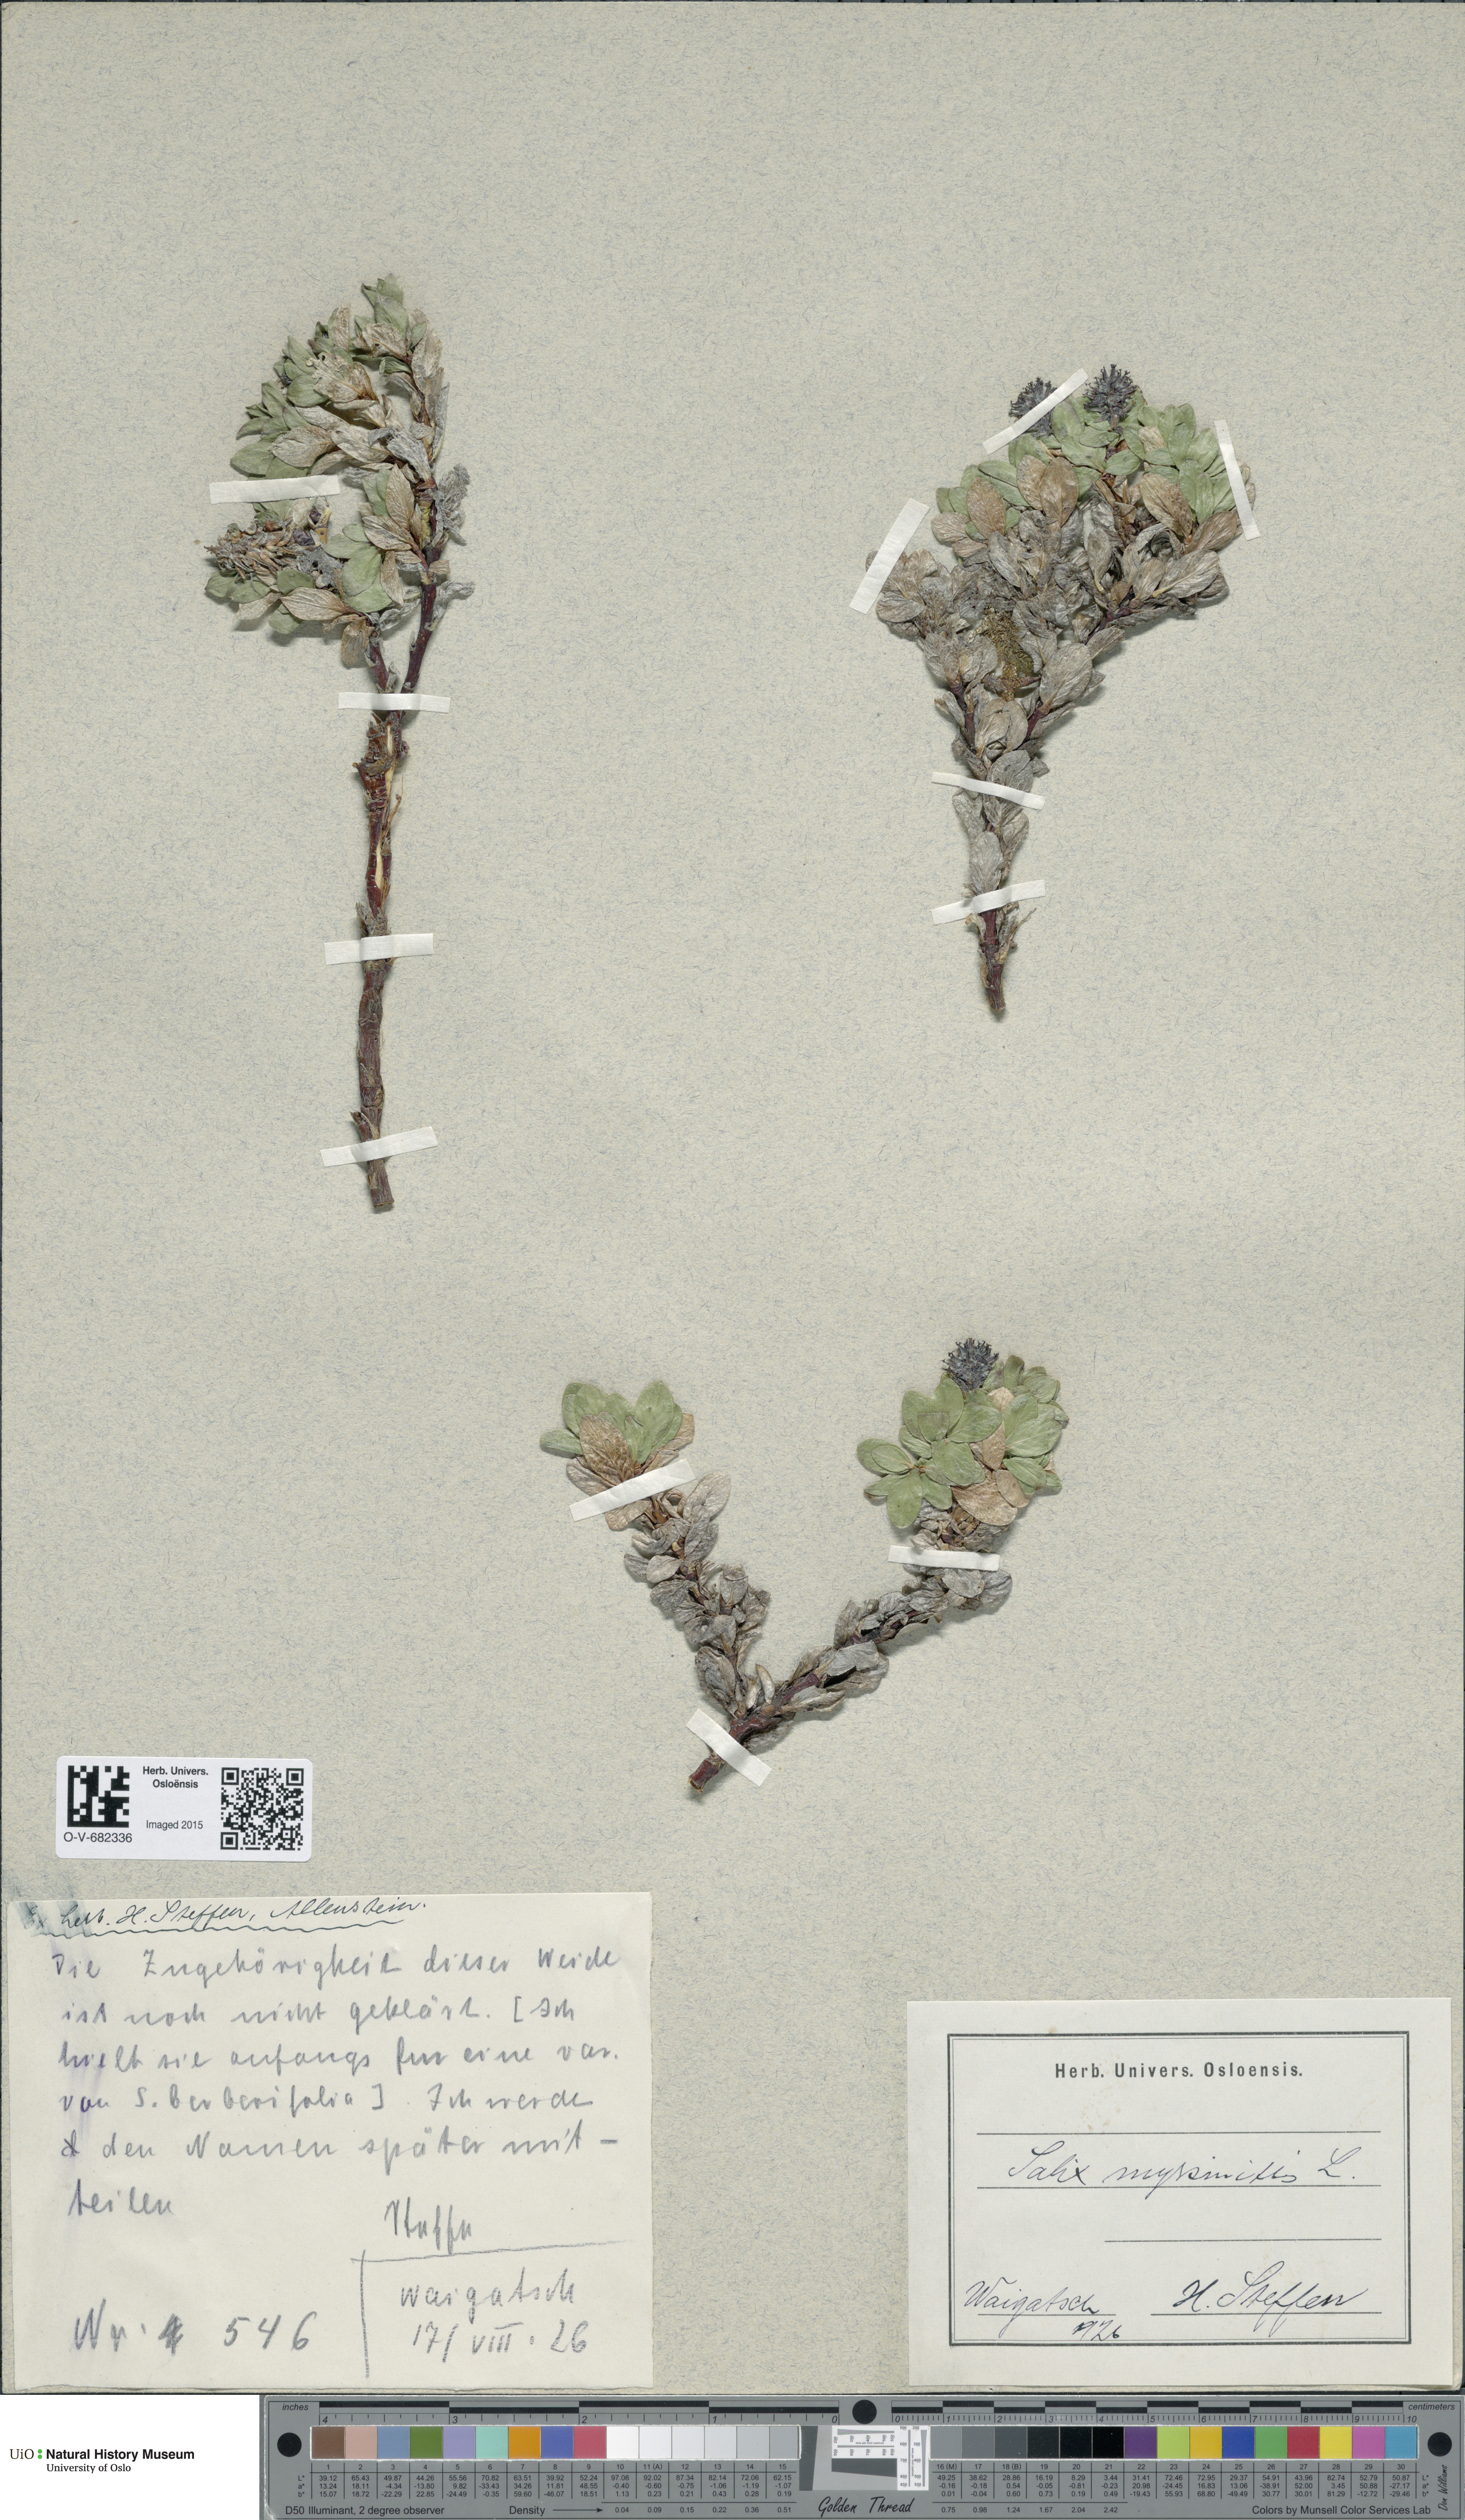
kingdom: Plantae
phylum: Tracheophyta
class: Magnoliopsida
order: Malpighiales
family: Salicaceae
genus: Salix
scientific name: Salix myrsinites
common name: Myrtle willow
